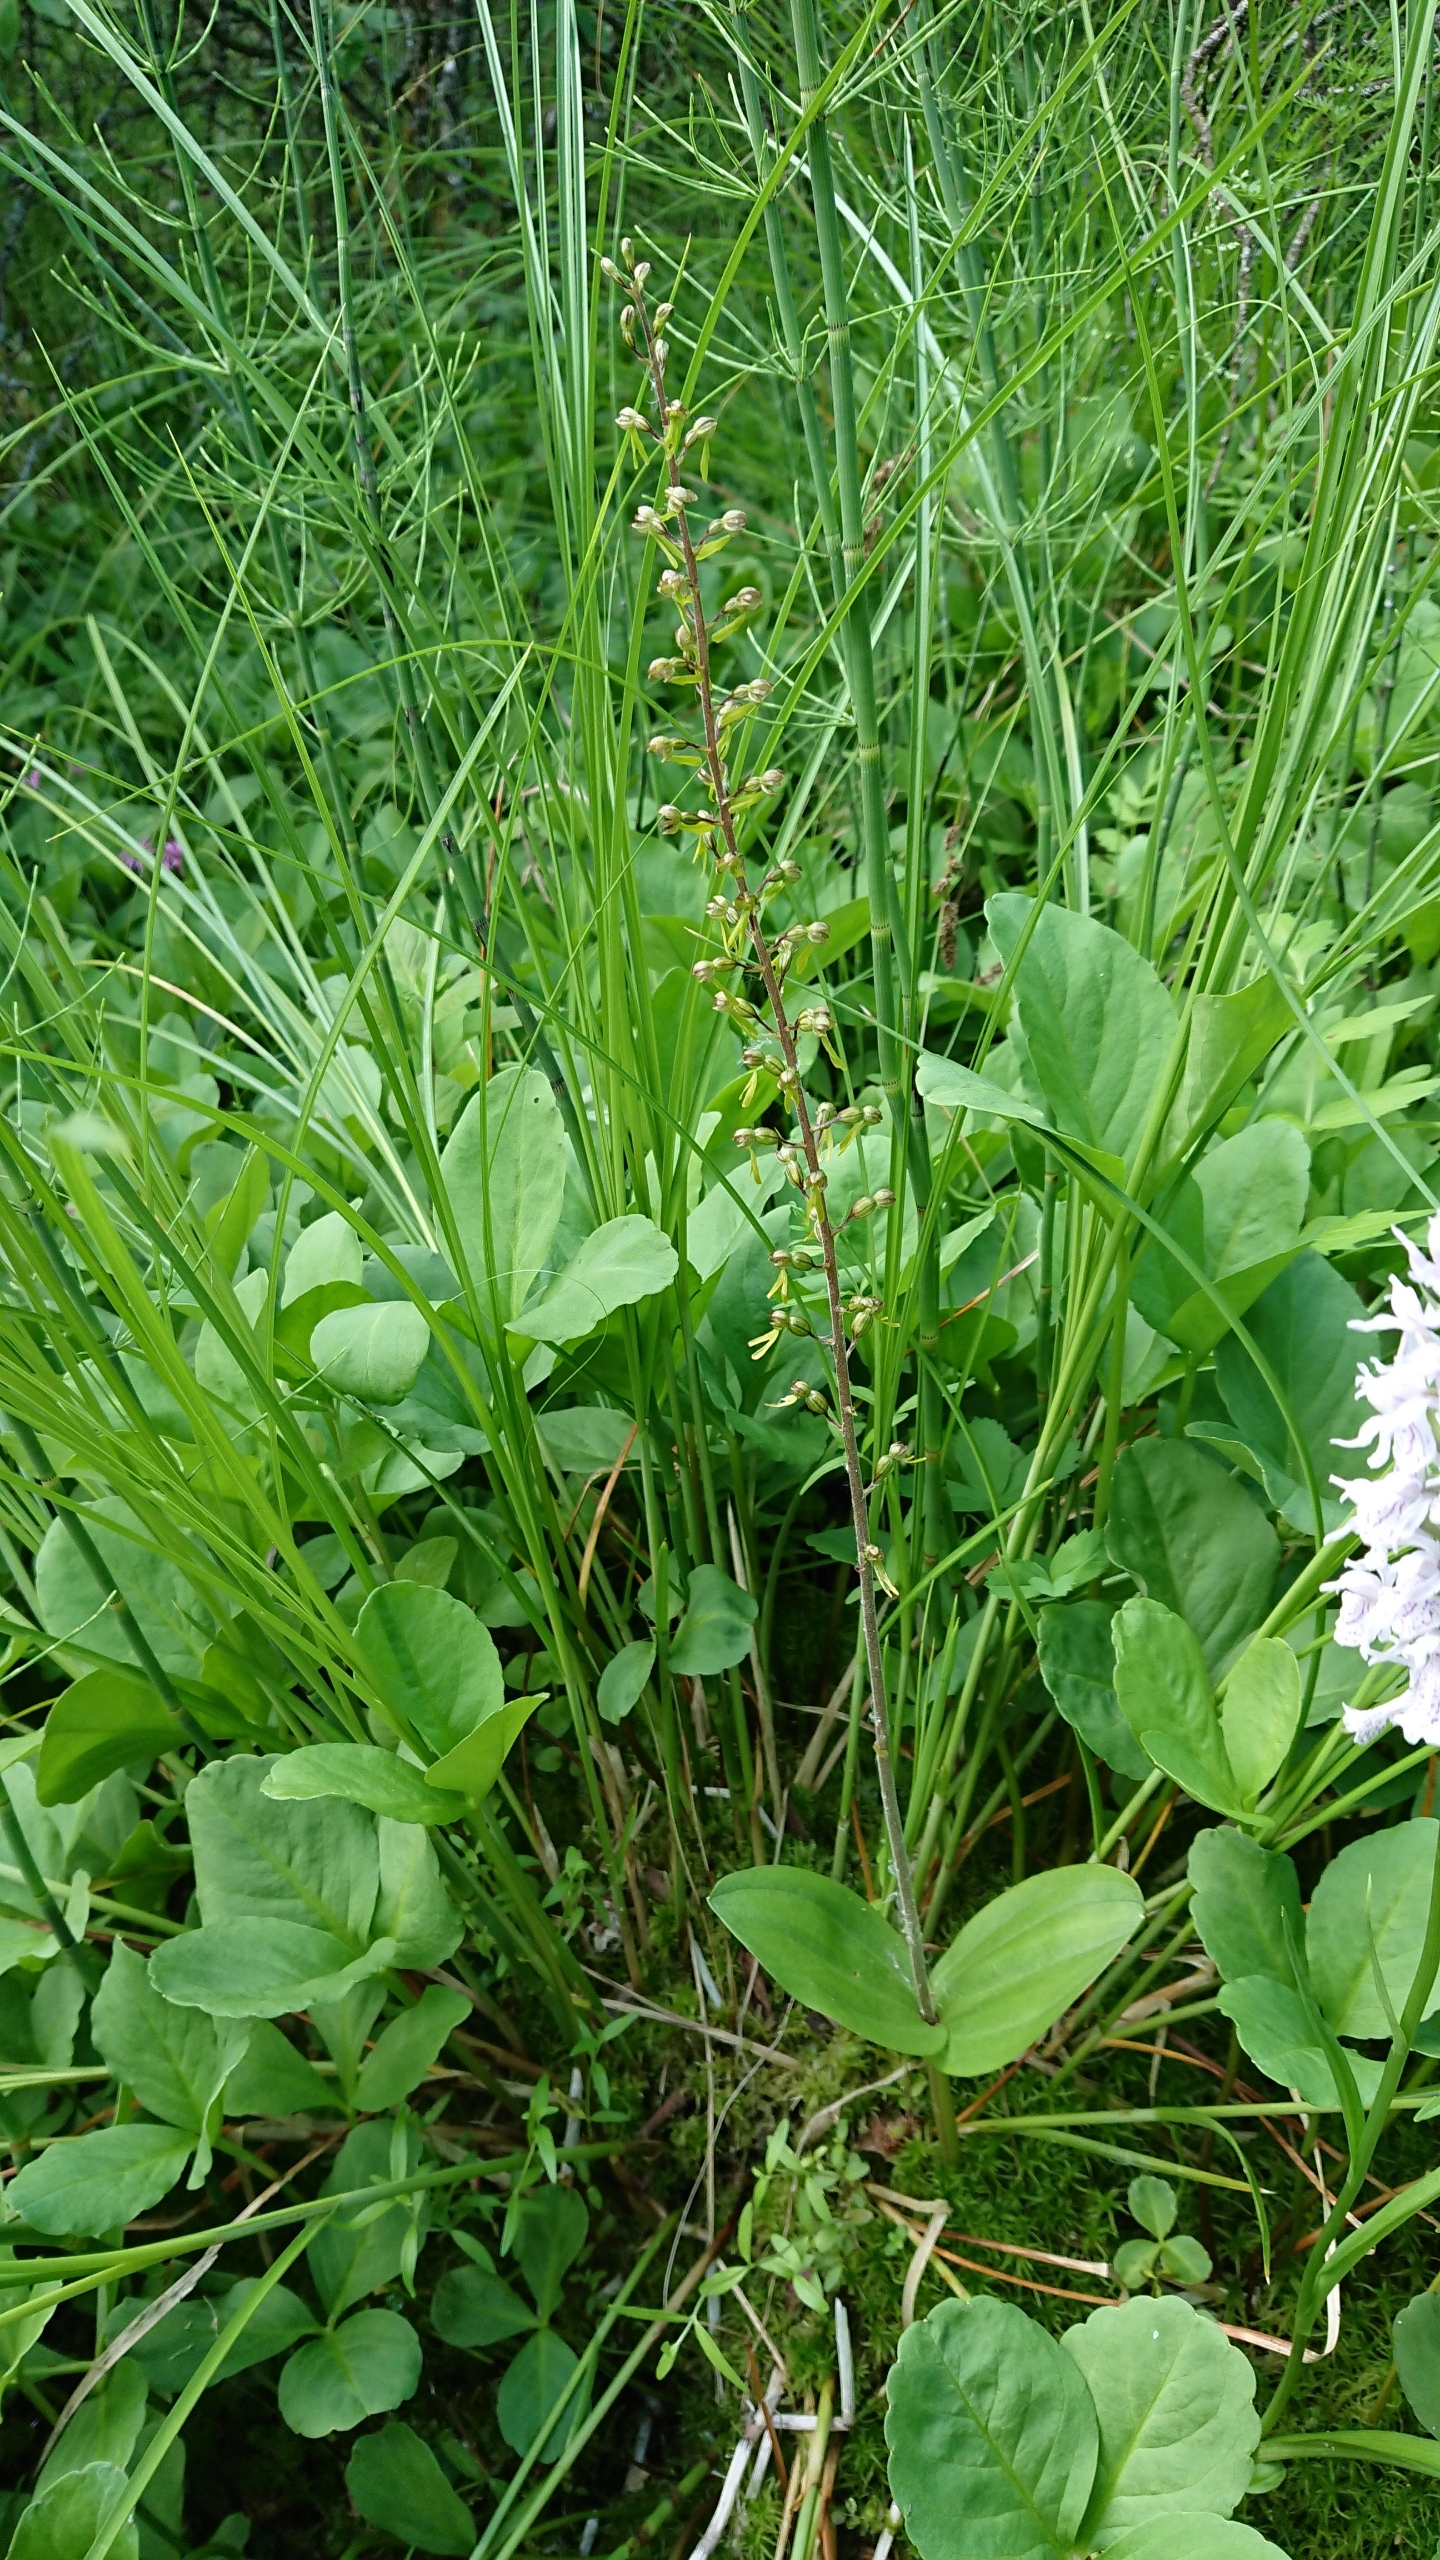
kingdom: Plantae
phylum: Tracheophyta
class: Liliopsida
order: Asparagales
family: Orchidaceae
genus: Neottia
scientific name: Neottia ovata
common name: Ægbladet fliglæbe
